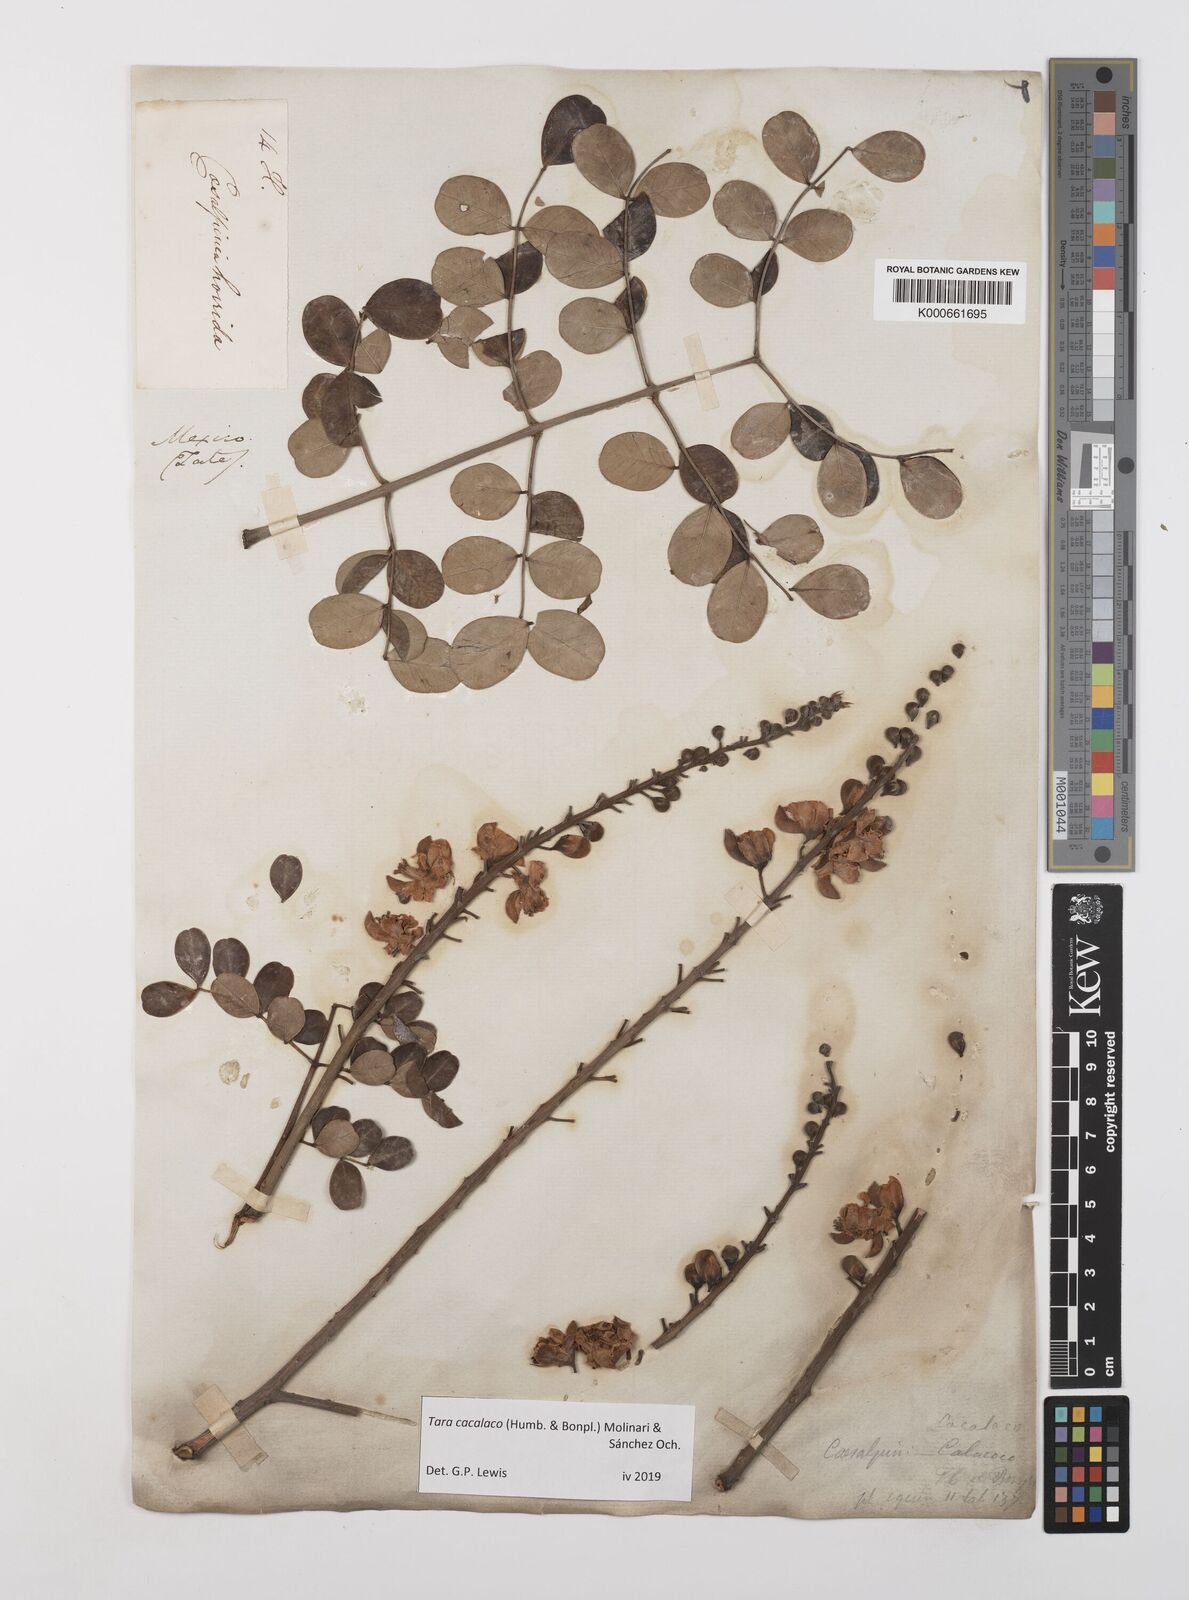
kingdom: Plantae
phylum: Tracheophyta
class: Magnoliopsida
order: Fabales
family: Fabaceae
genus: Tara
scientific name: Tara cacalaco
